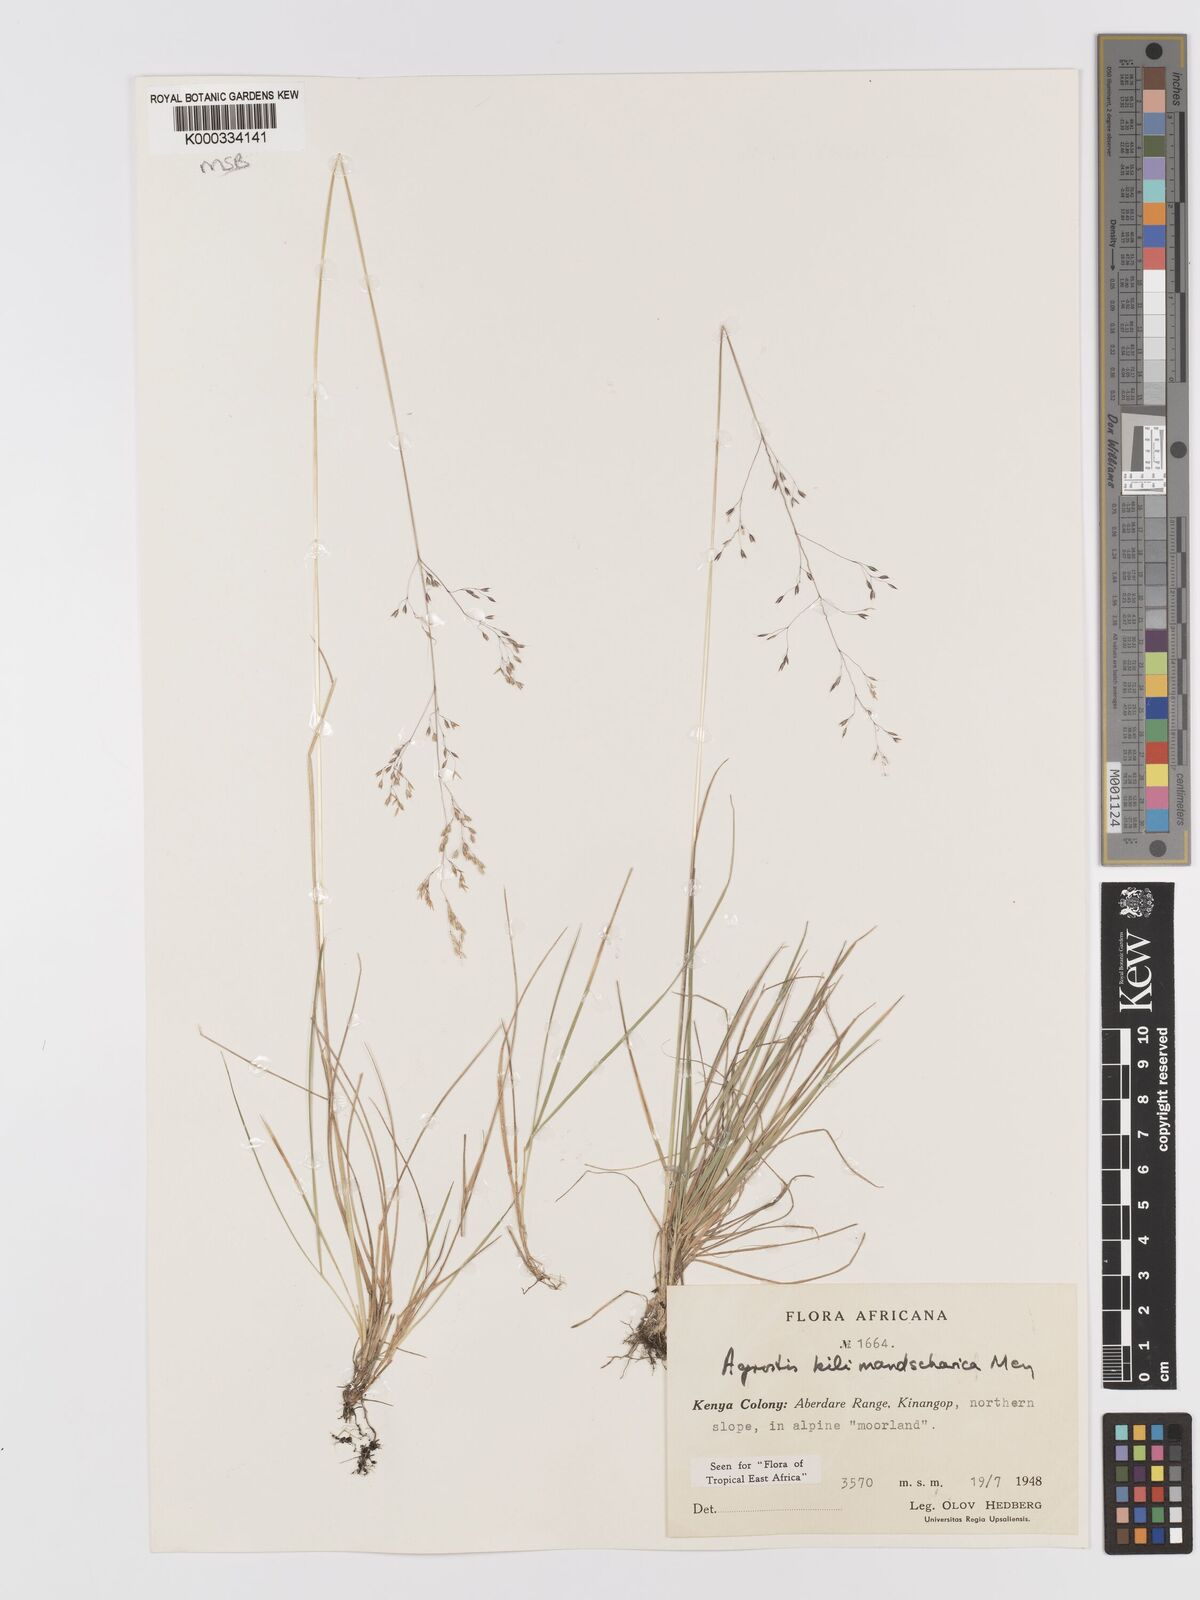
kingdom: Plantae
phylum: Tracheophyta
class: Liliopsida
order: Poales
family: Poaceae
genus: Agrostis
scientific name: Agrostis kilimandscharica
